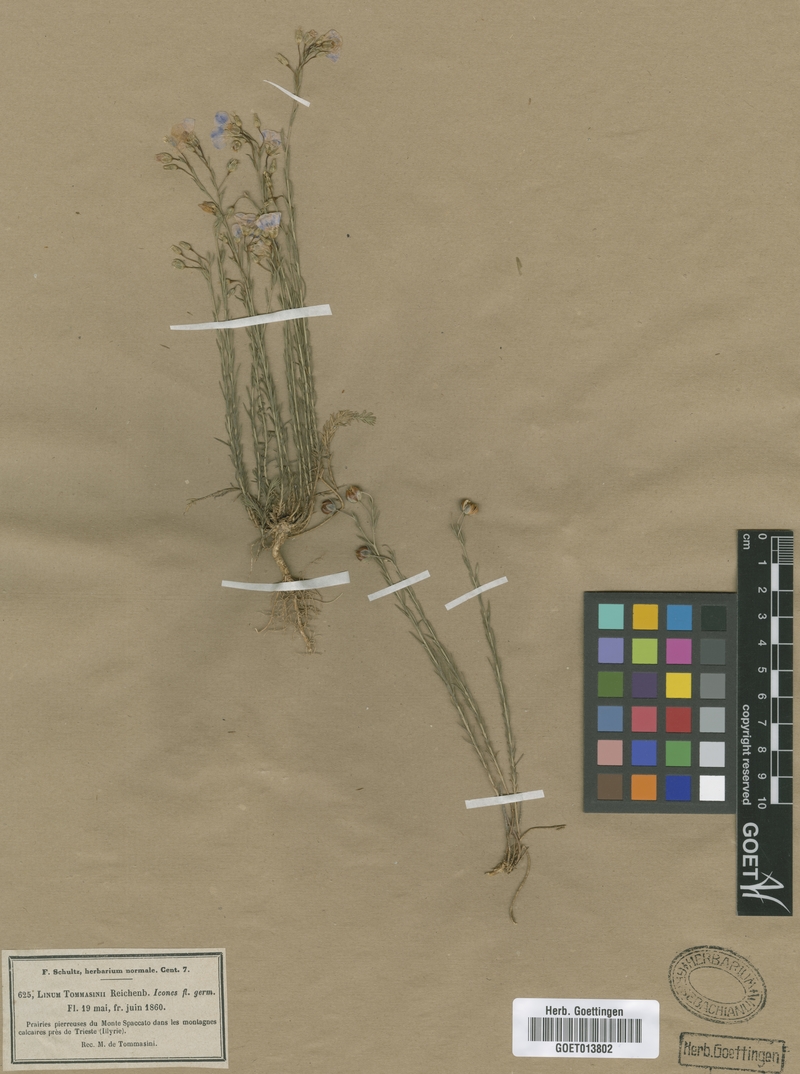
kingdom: Plantae
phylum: Tracheophyta
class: Magnoliopsida
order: Malpighiales
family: Linaceae
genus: Linum
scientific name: Linum austriacum
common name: Austrian flax
